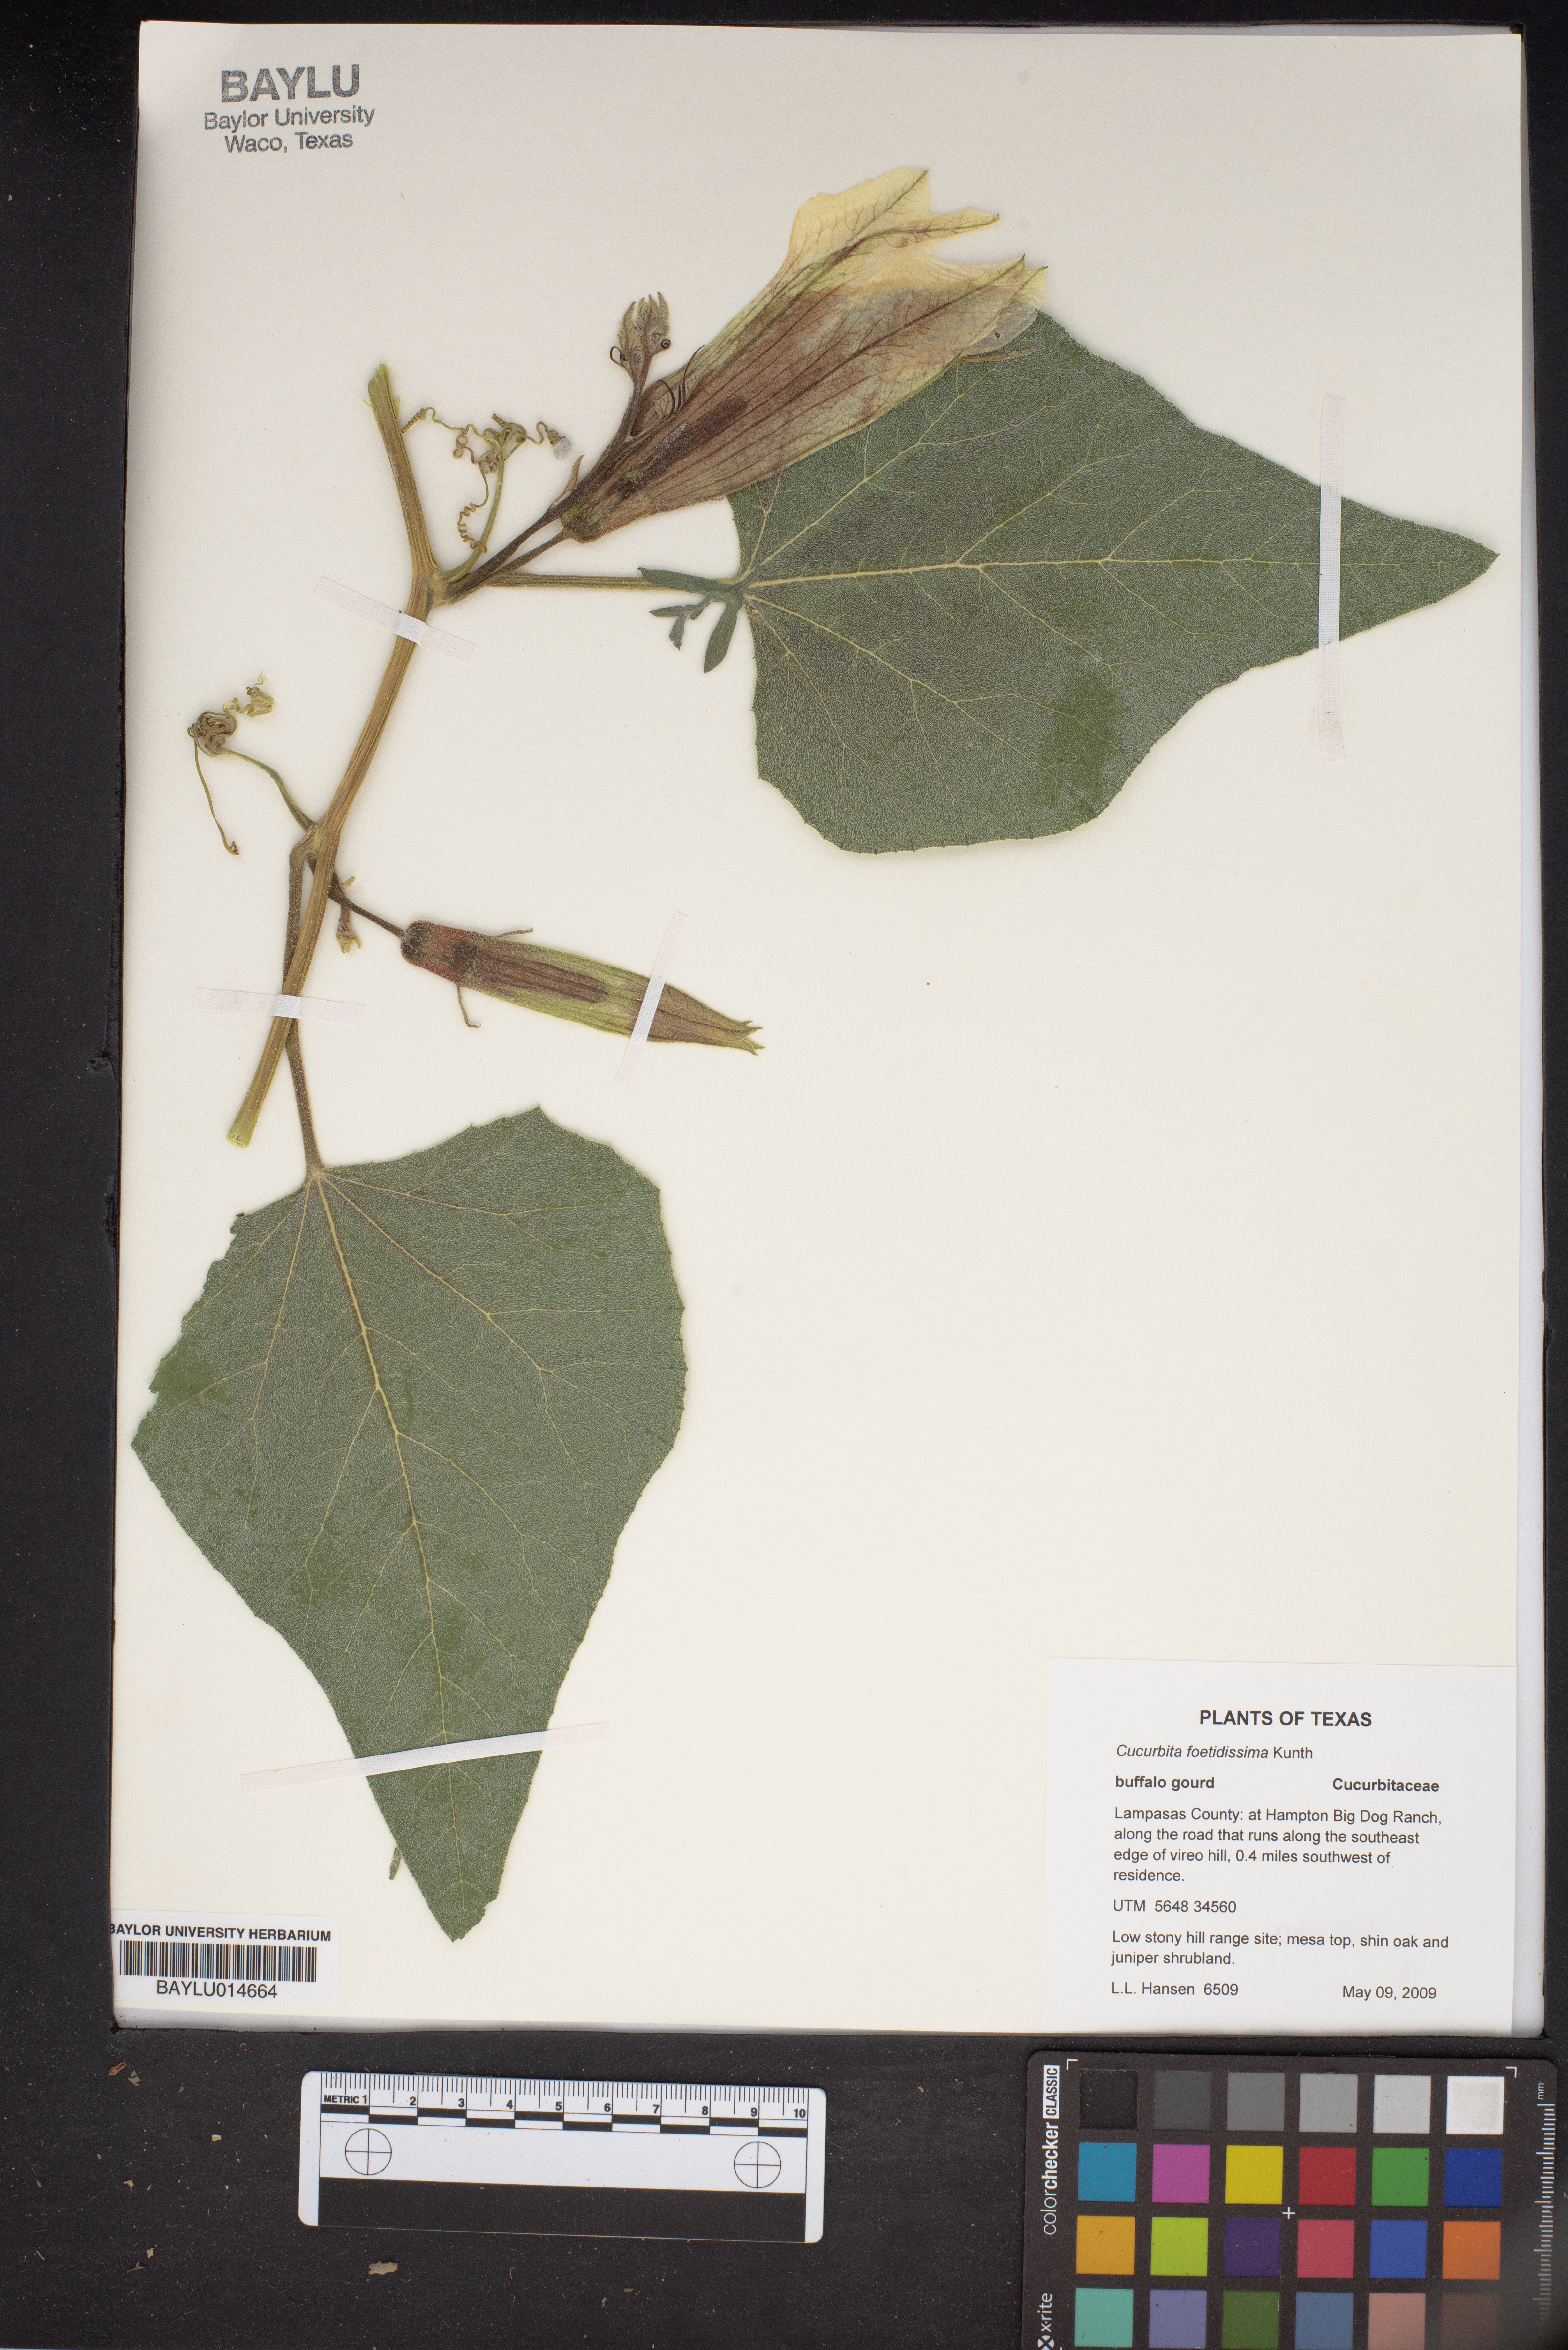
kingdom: Plantae
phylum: Tracheophyta
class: Magnoliopsida
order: Cucurbitales
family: Cucurbitaceae
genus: Cucurbita
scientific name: Cucurbita foetidissima
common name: Buffalo gourd
